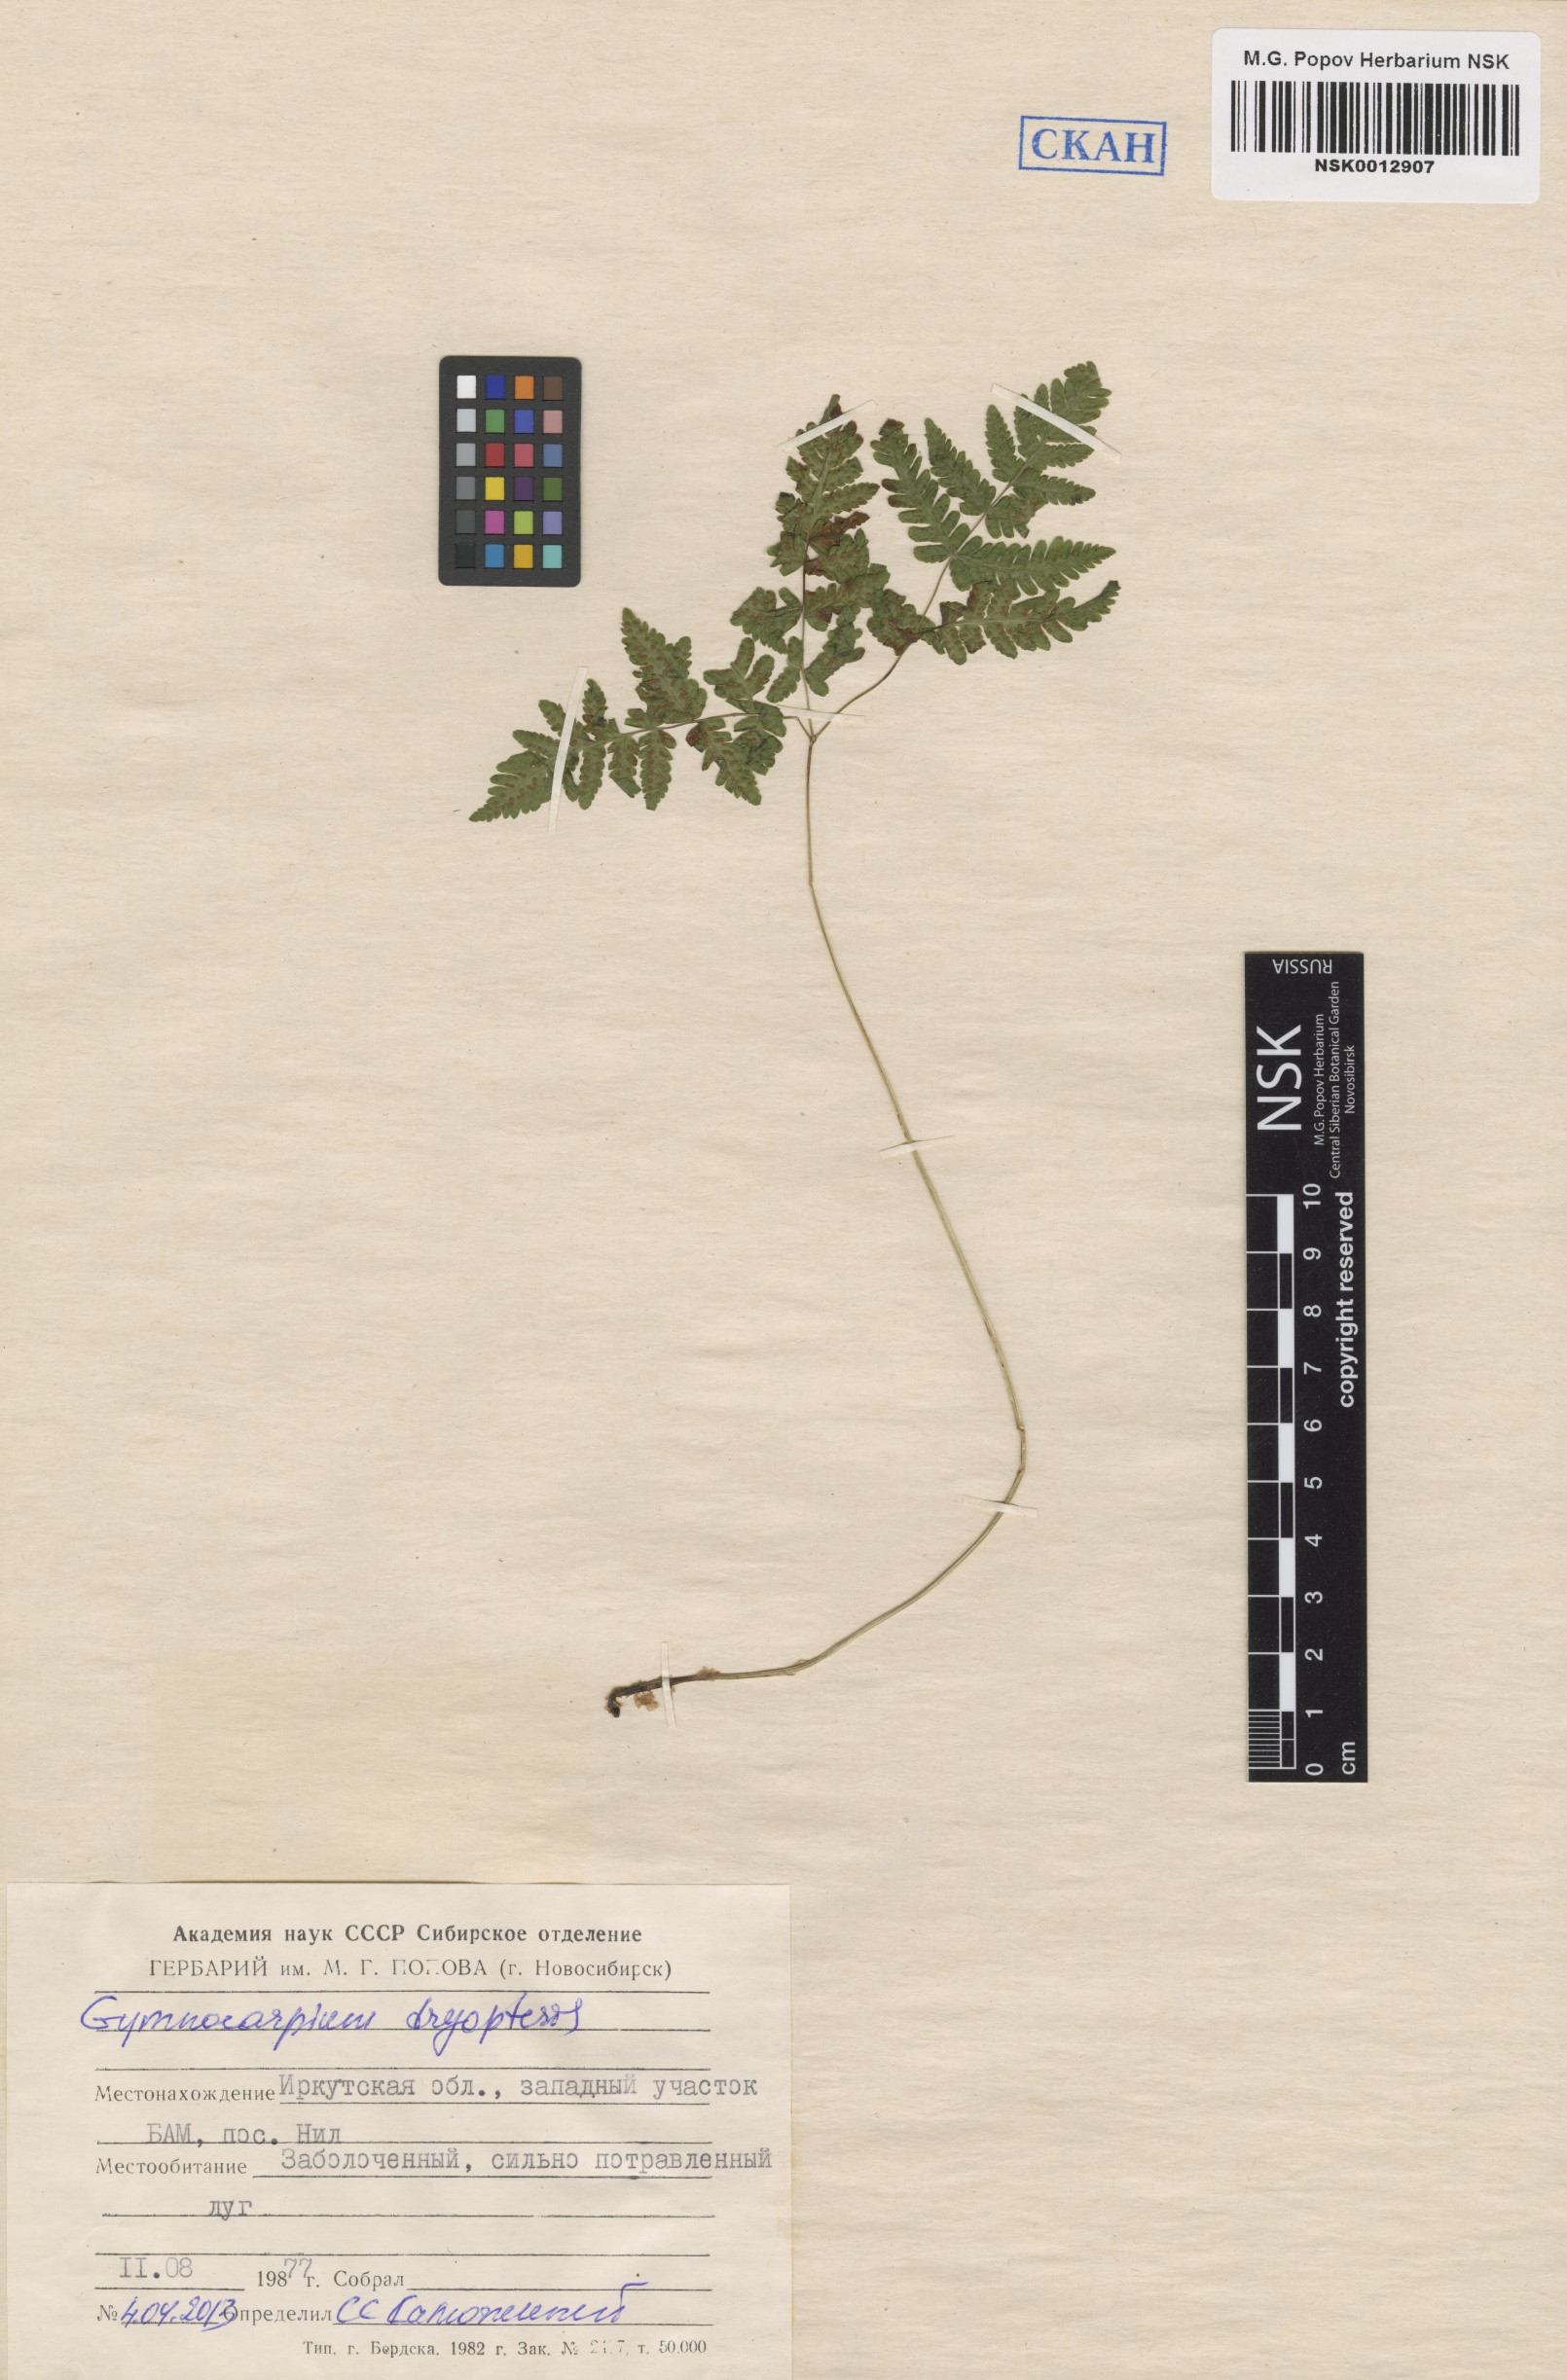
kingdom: Plantae
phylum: Tracheophyta
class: Polypodiopsida
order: Polypodiales
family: Cystopteridaceae
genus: Gymnocarpium
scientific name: Gymnocarpium dryopteris
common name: Oak fern
